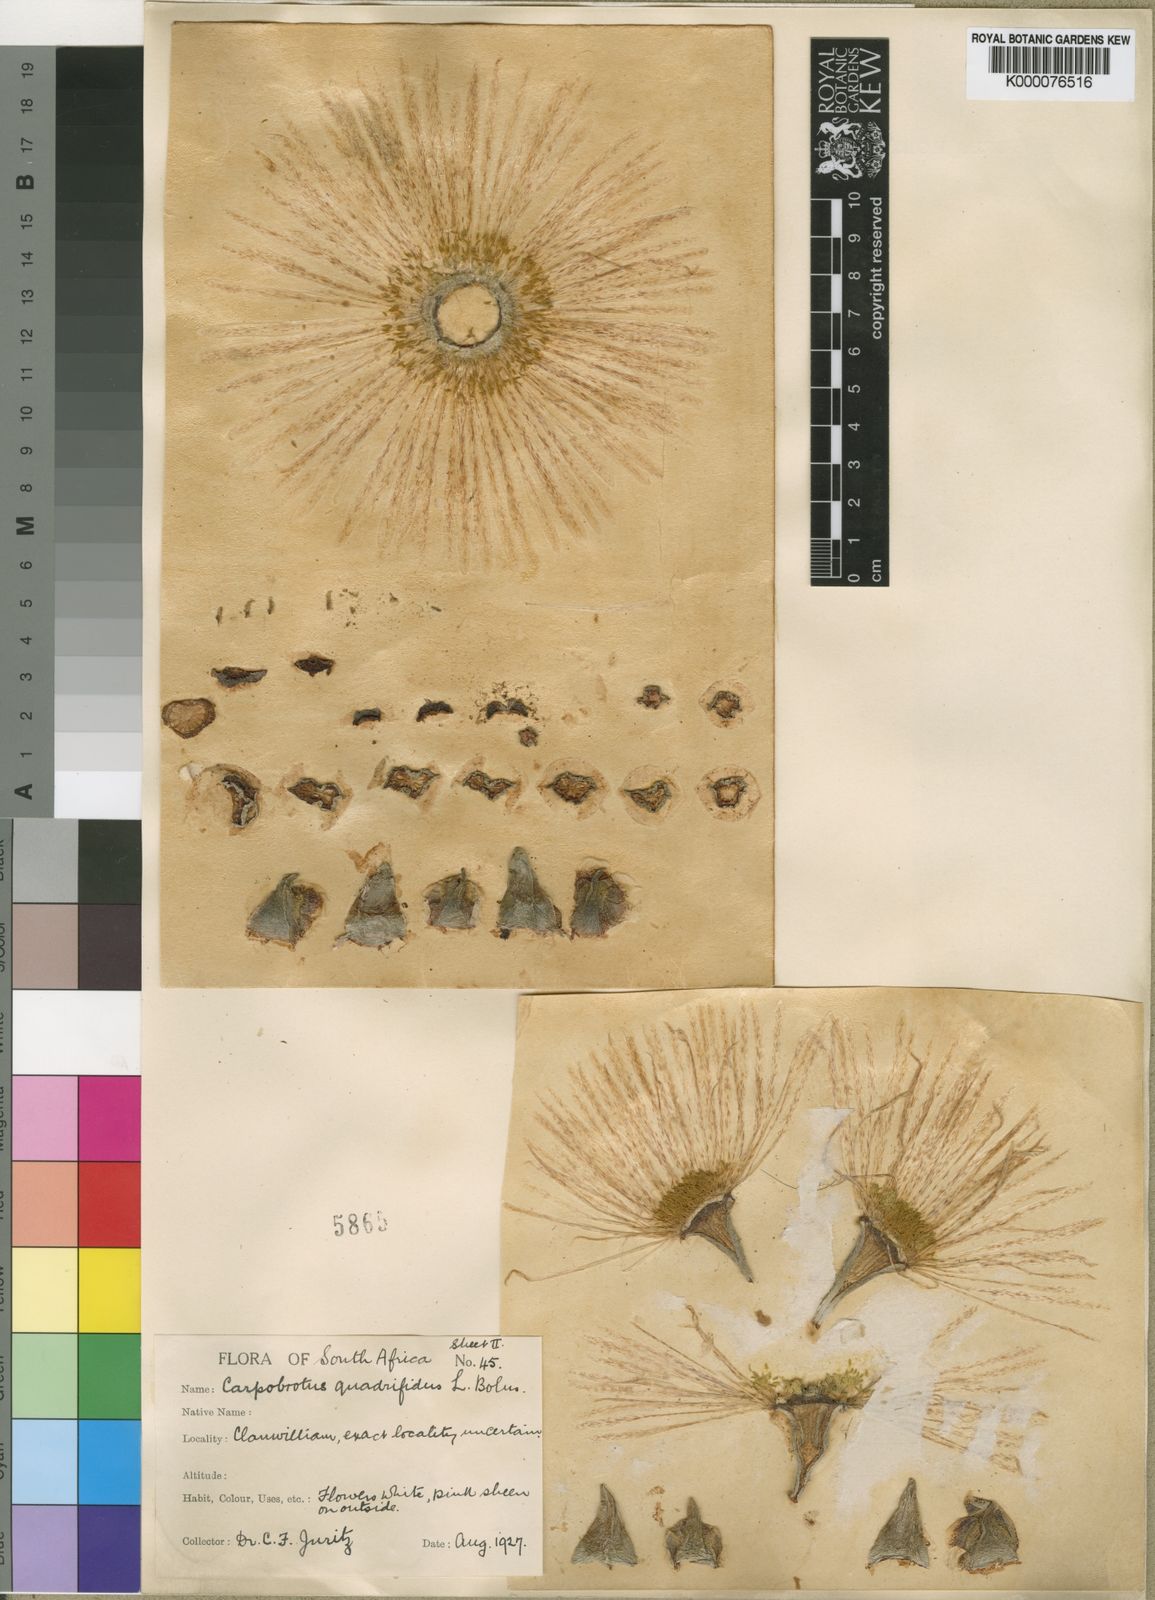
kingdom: Plantae
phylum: Tracheophyta
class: Magnoliopsida
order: Caryophyllales
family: Aizoaceae
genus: Carpobrotus
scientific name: Carpobrotus quadrifidus
